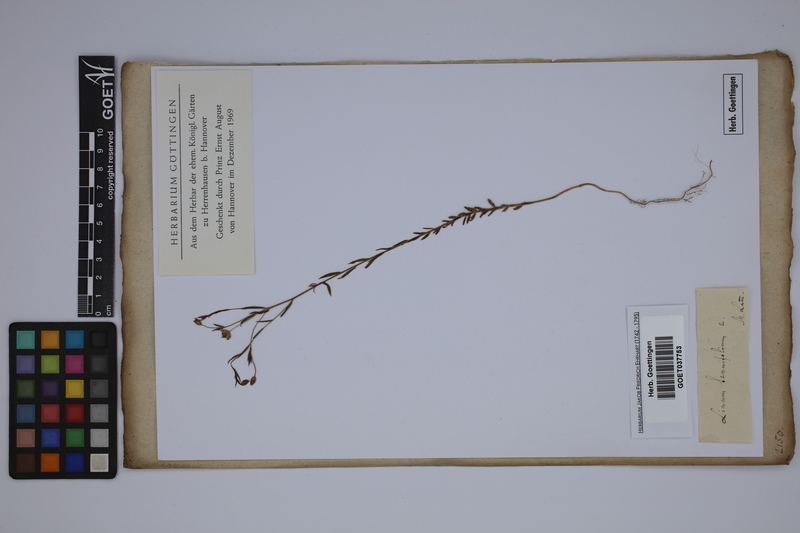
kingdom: Plantae
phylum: Tracheophyta
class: Magnoliopsida
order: Malpighiales
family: Linaceae
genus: Linum
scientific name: Linum tenuifolium
